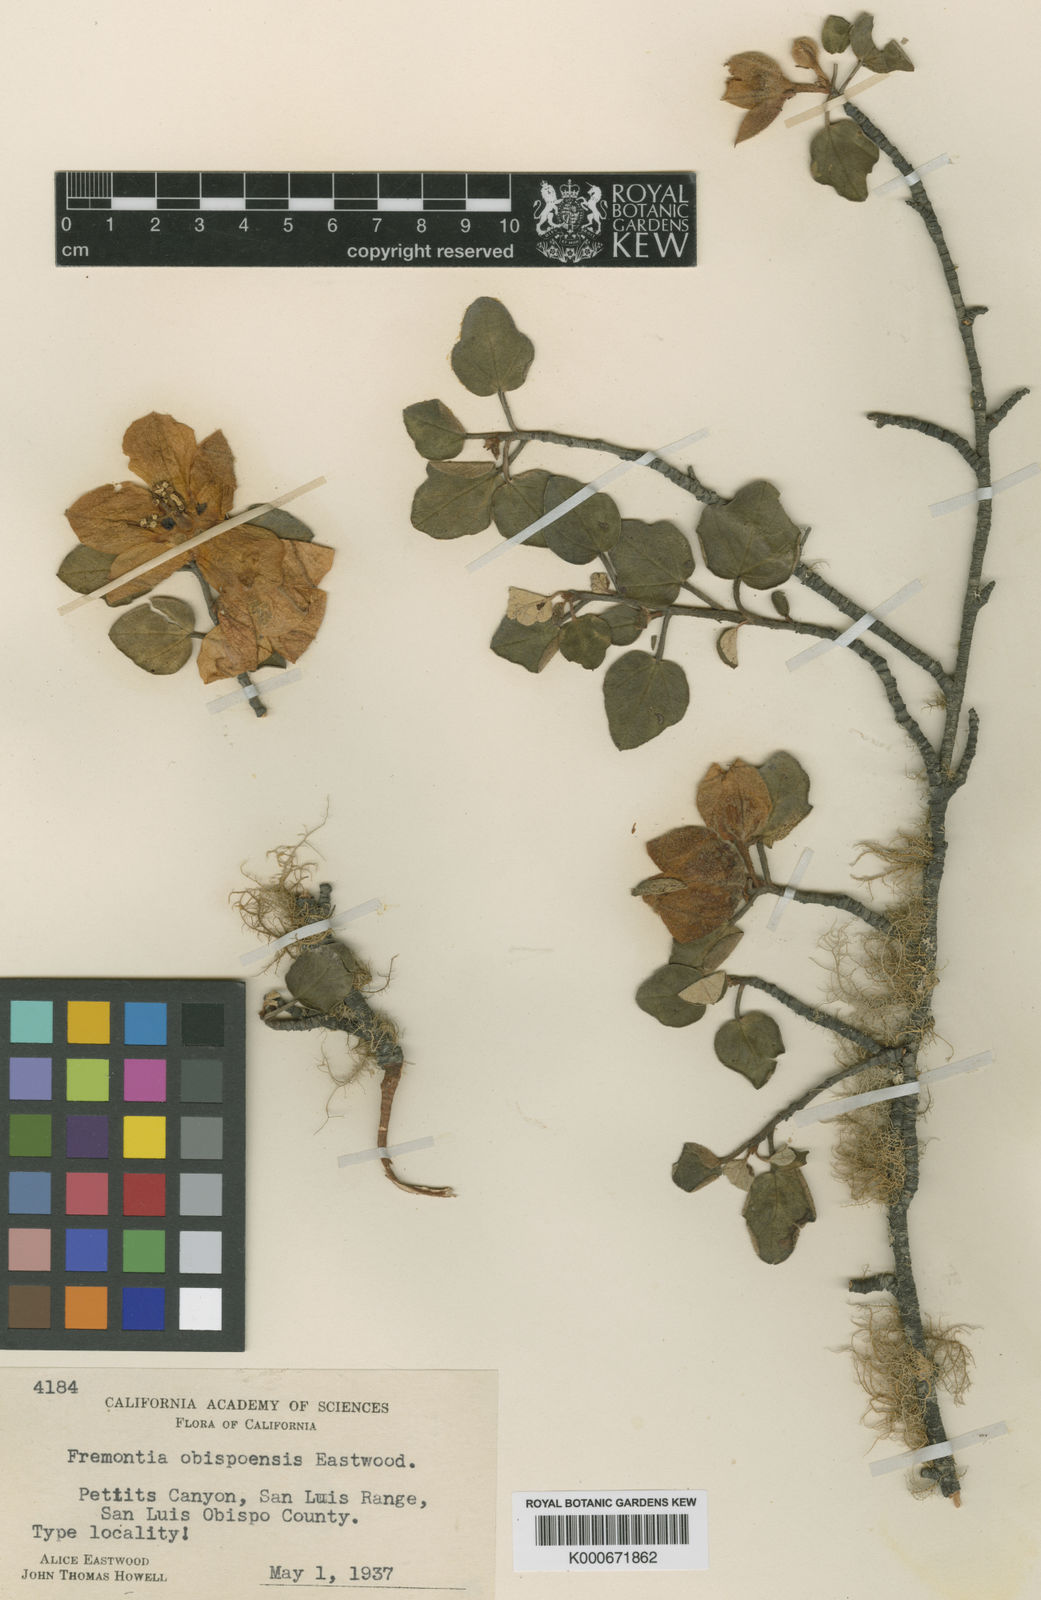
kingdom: Plantae
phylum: Tracheophyta
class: Magnoliopsida
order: Malvales
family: Malvaceae
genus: Fremontodendron
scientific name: Fremontodendron
